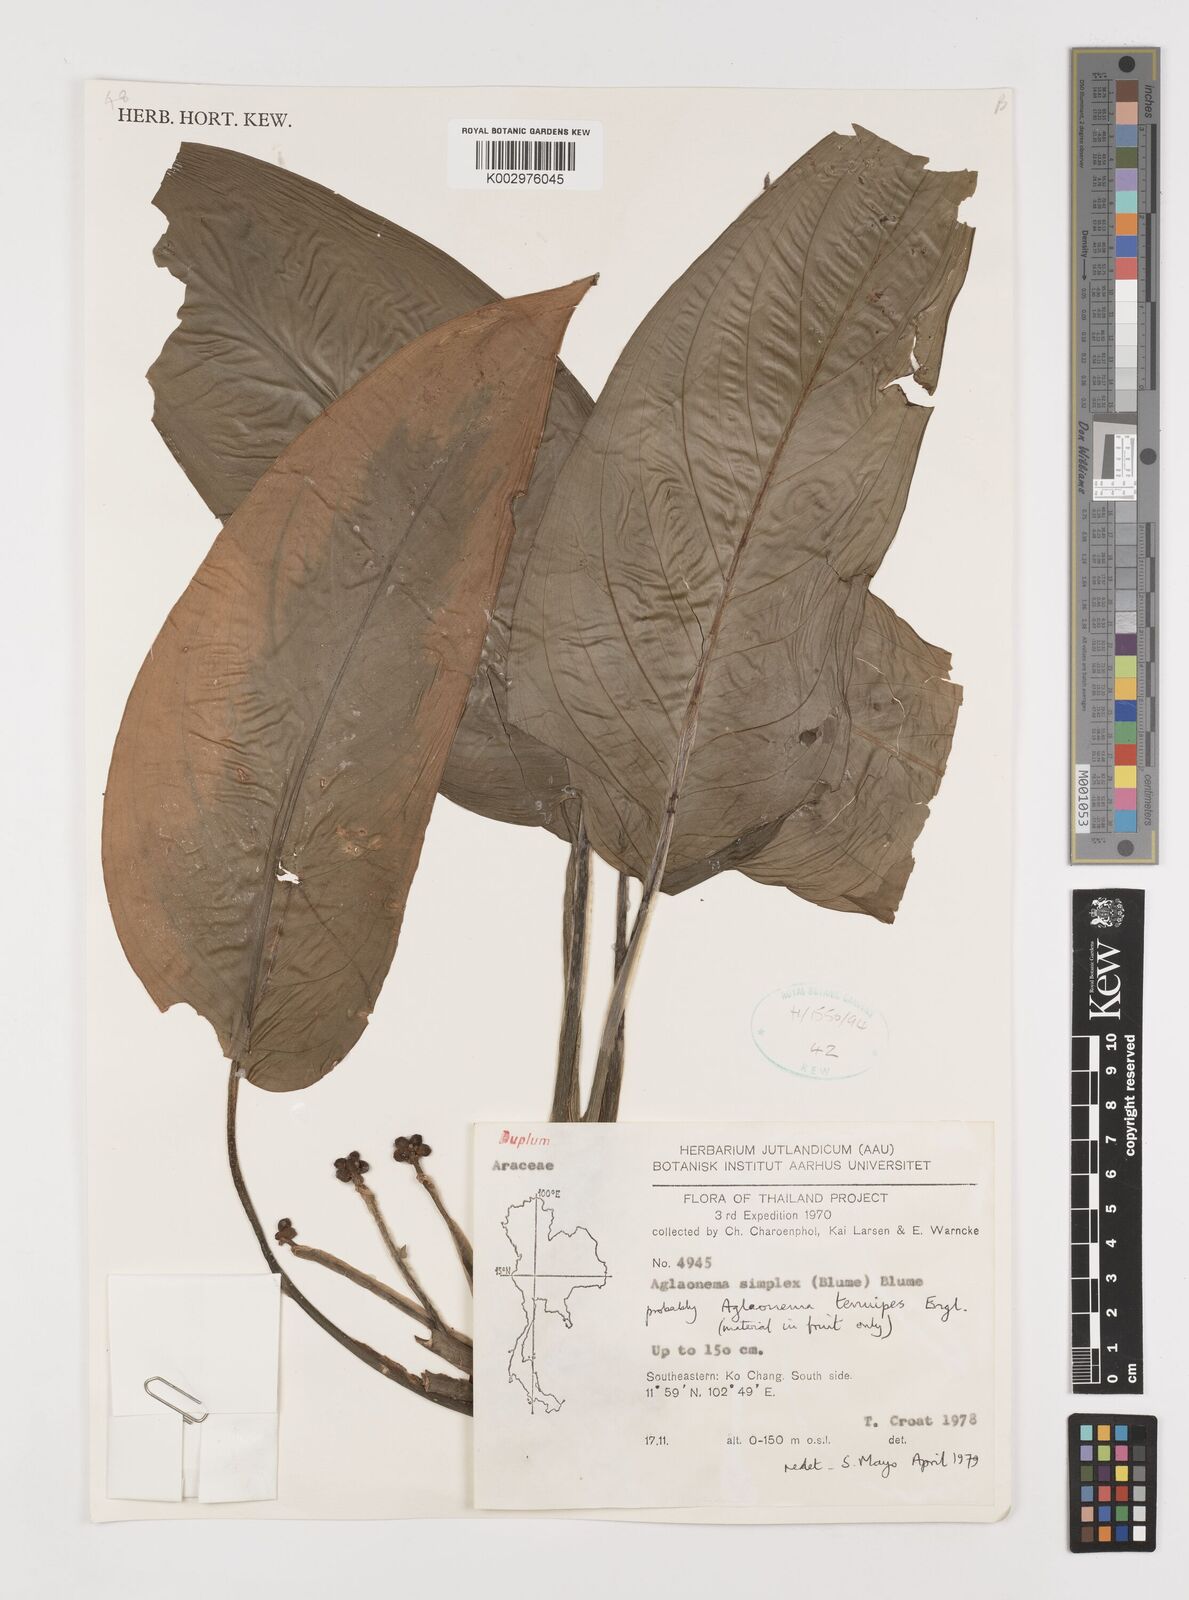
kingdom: Plantae
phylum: Tracheophyta
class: Liliopsida
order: Alismatales
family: Araceae
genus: Aglaonema
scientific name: Aglaonema simplex
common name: Malayan-sword
